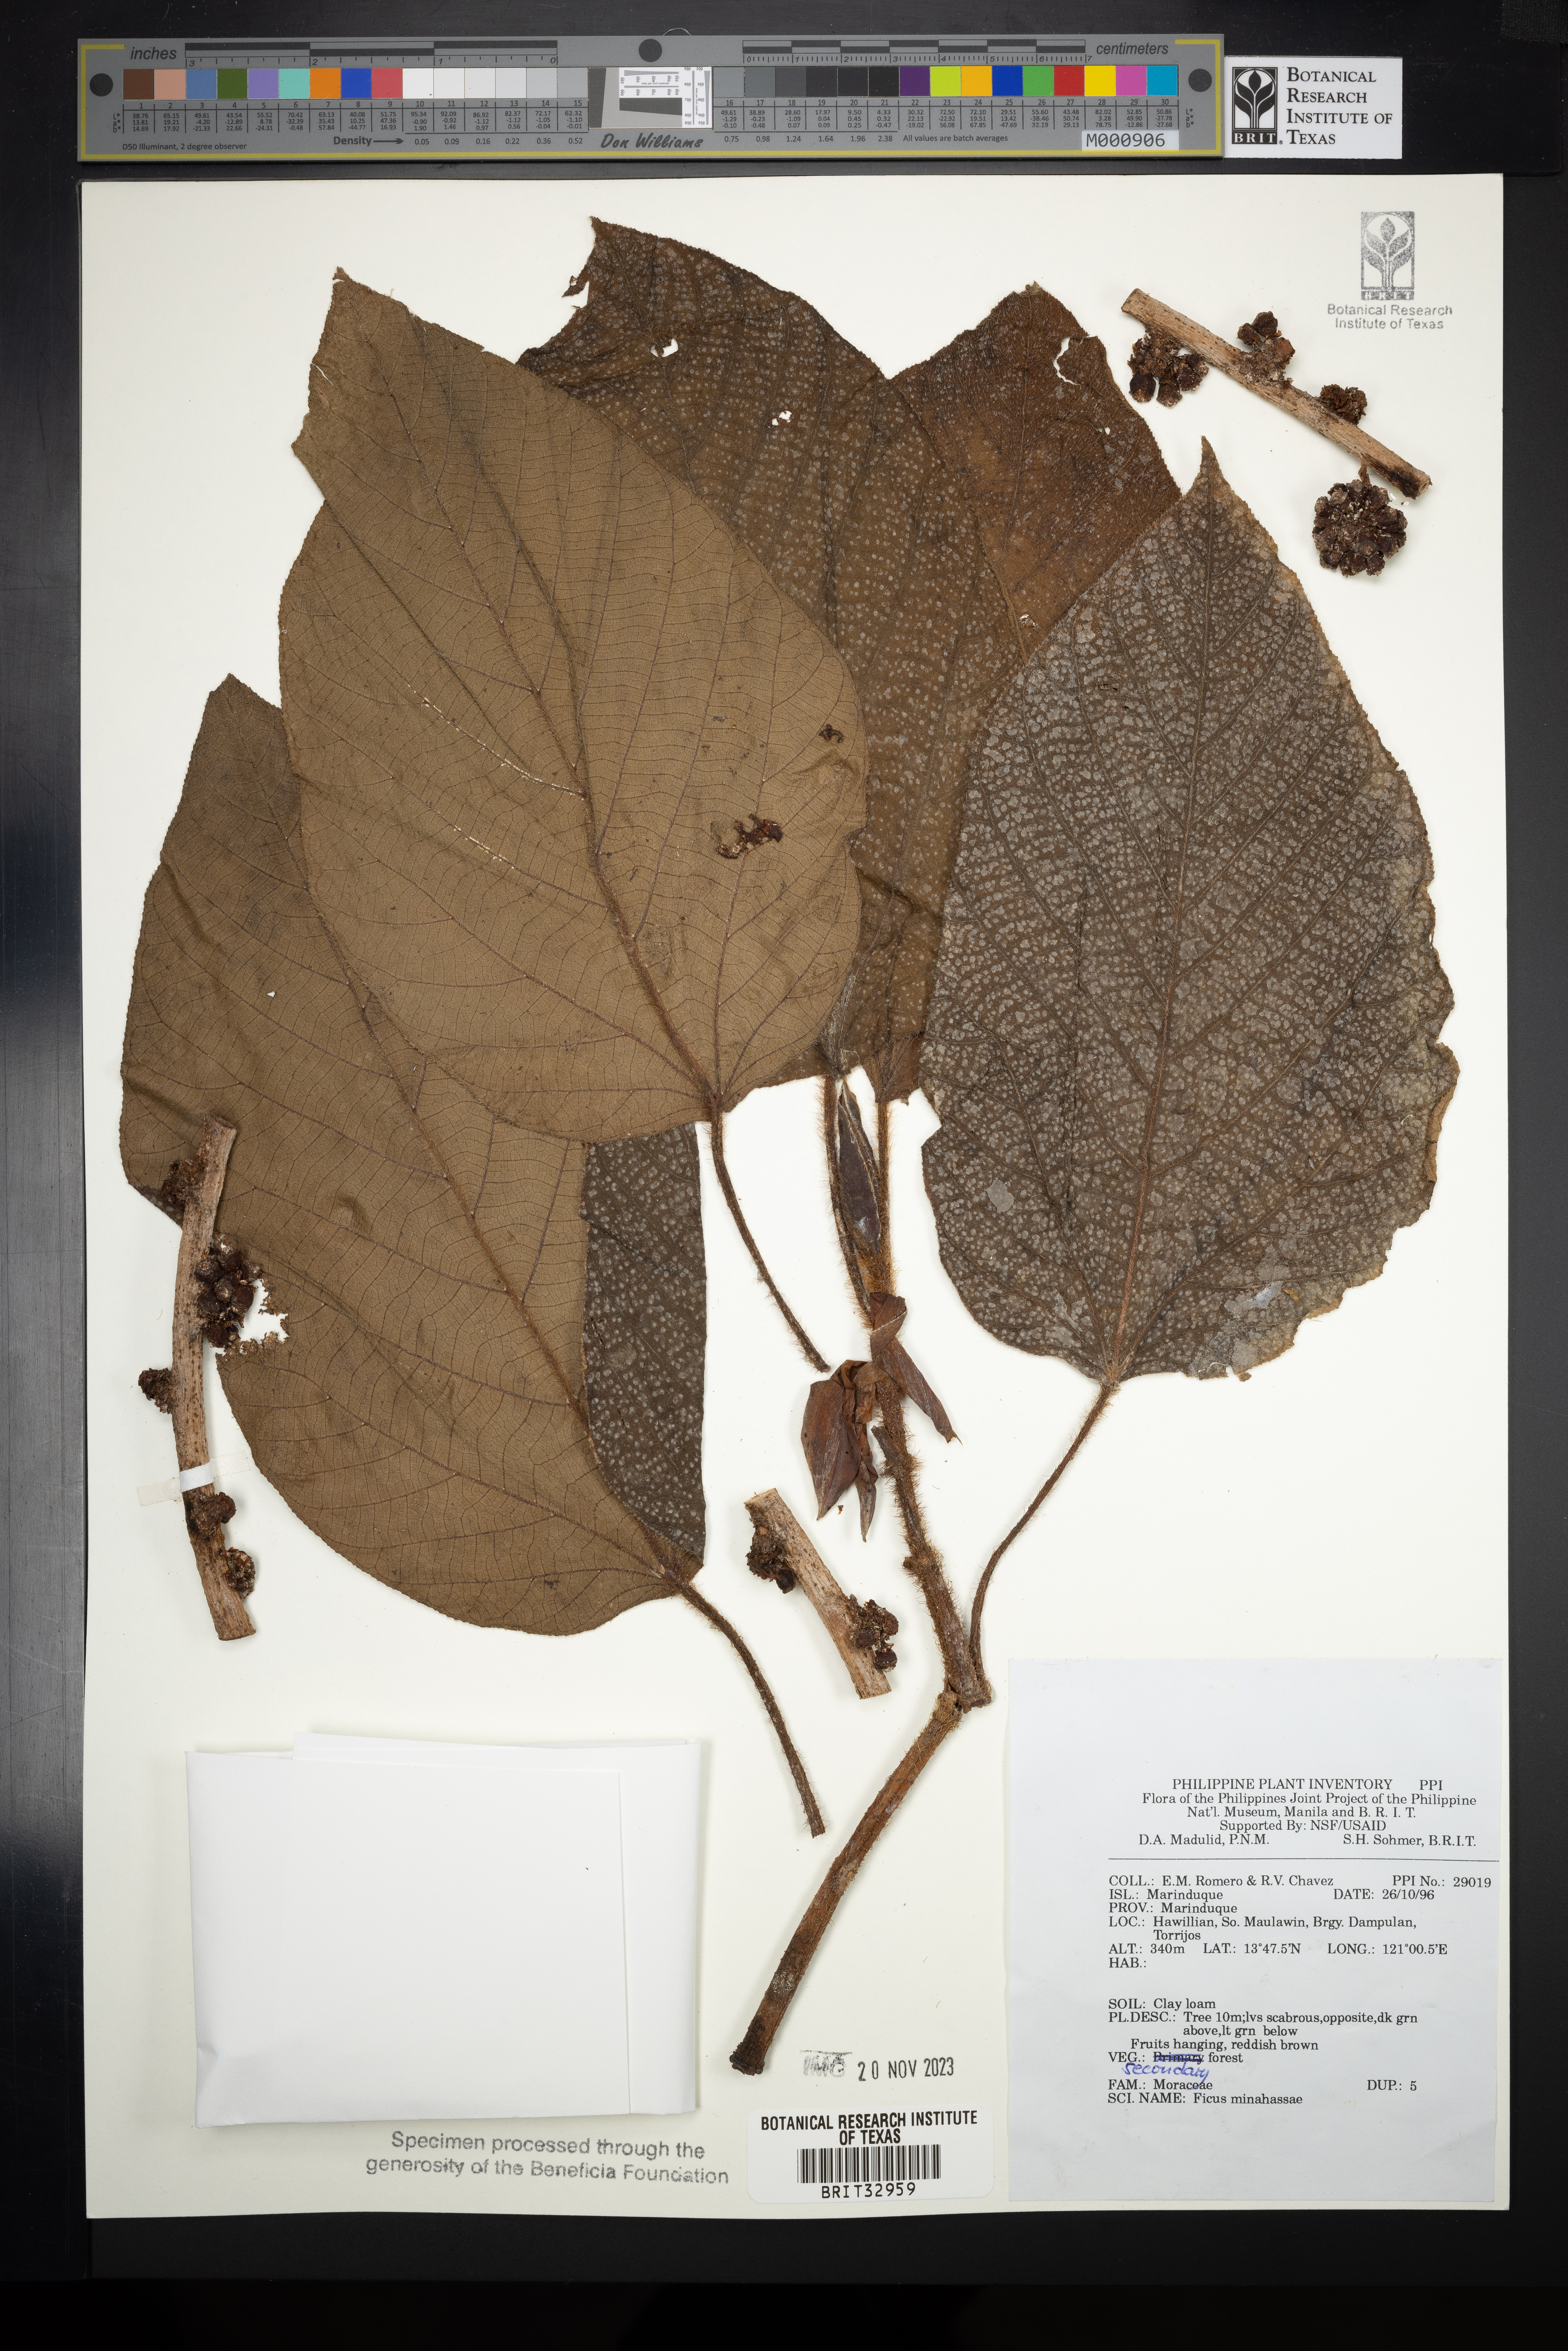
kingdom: Plantae
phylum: Tracheophyta
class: Magnoliopsida
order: Rosales
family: Moraceae
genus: Ficus
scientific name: Ficus minahassae
